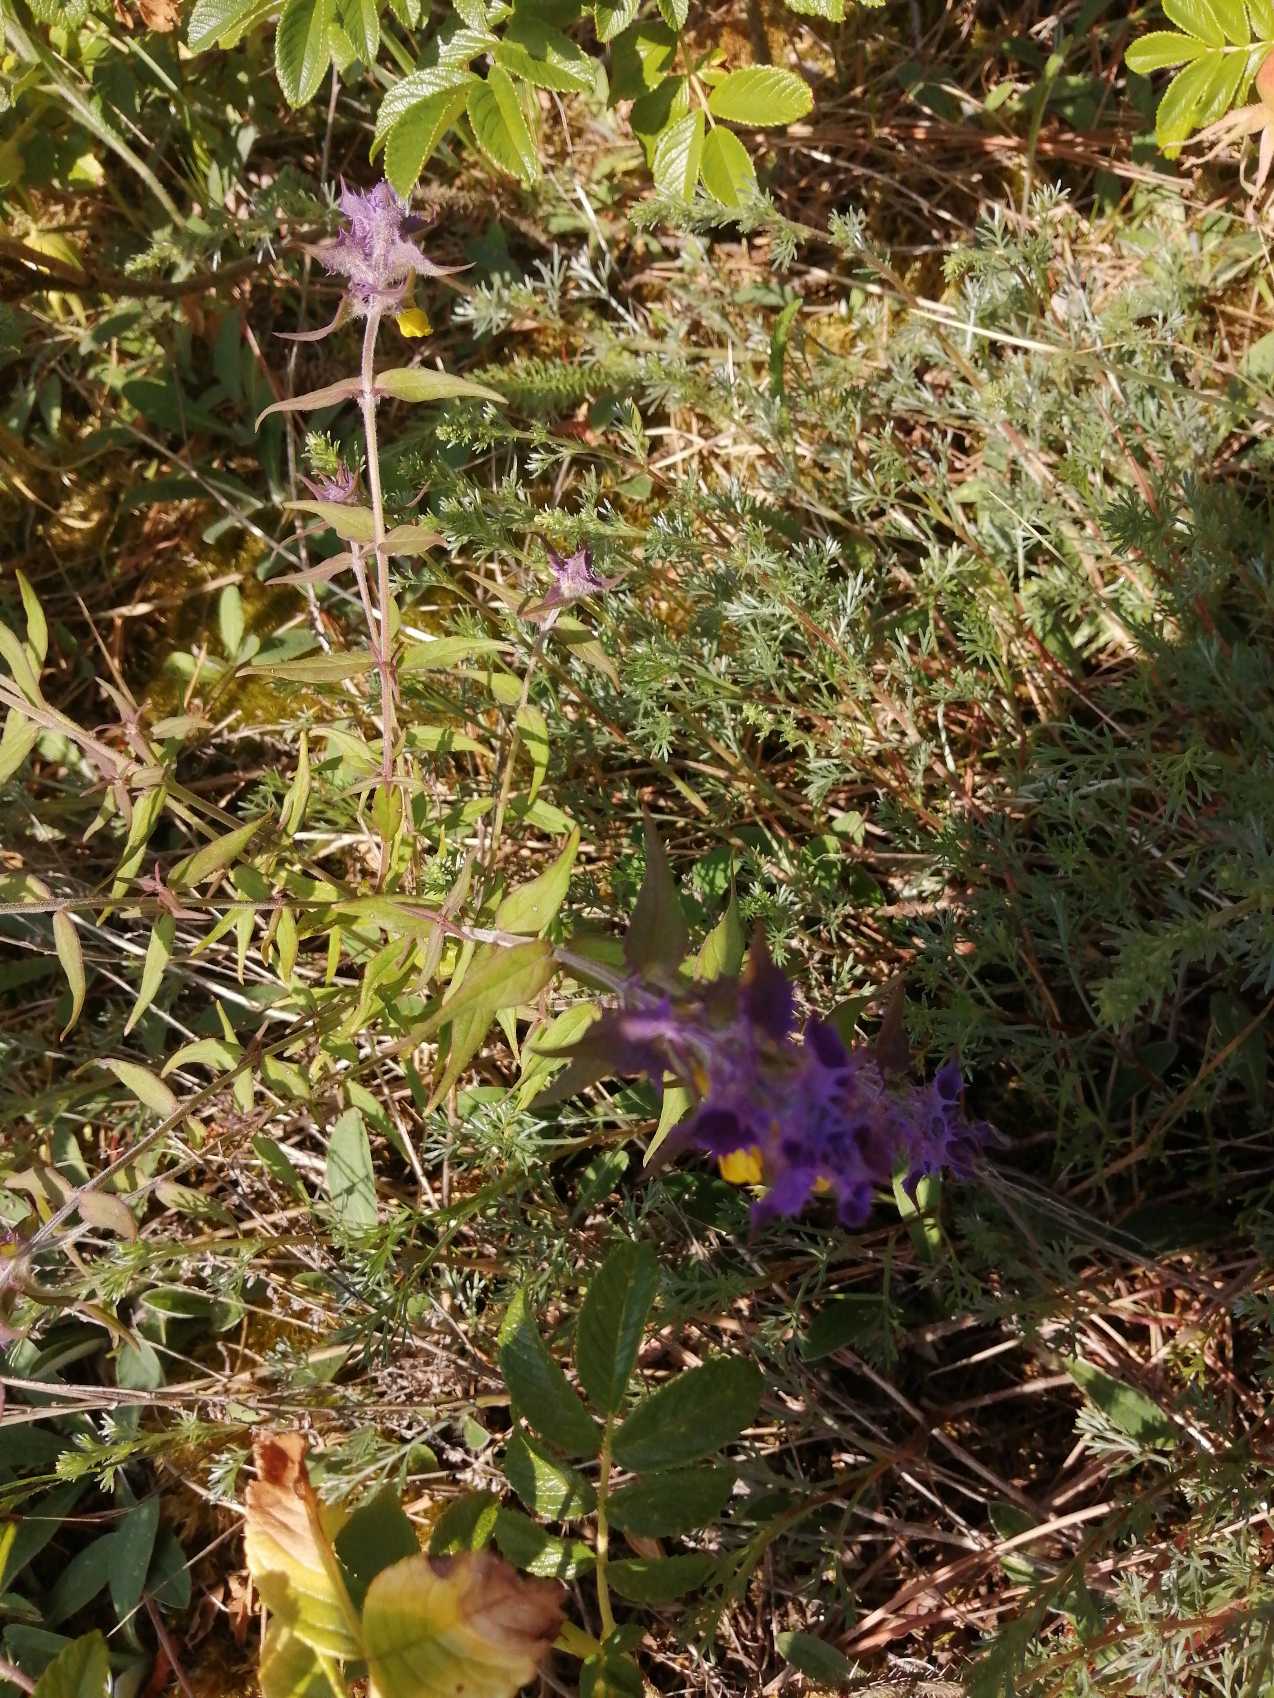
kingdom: Plantae
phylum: Tracheophyta
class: Magnoliopsida
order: Lamiales
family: Orobanchaceae
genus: Melampyrum
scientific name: Melampyrum nemorosum
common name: Blåtoppet kohvede
